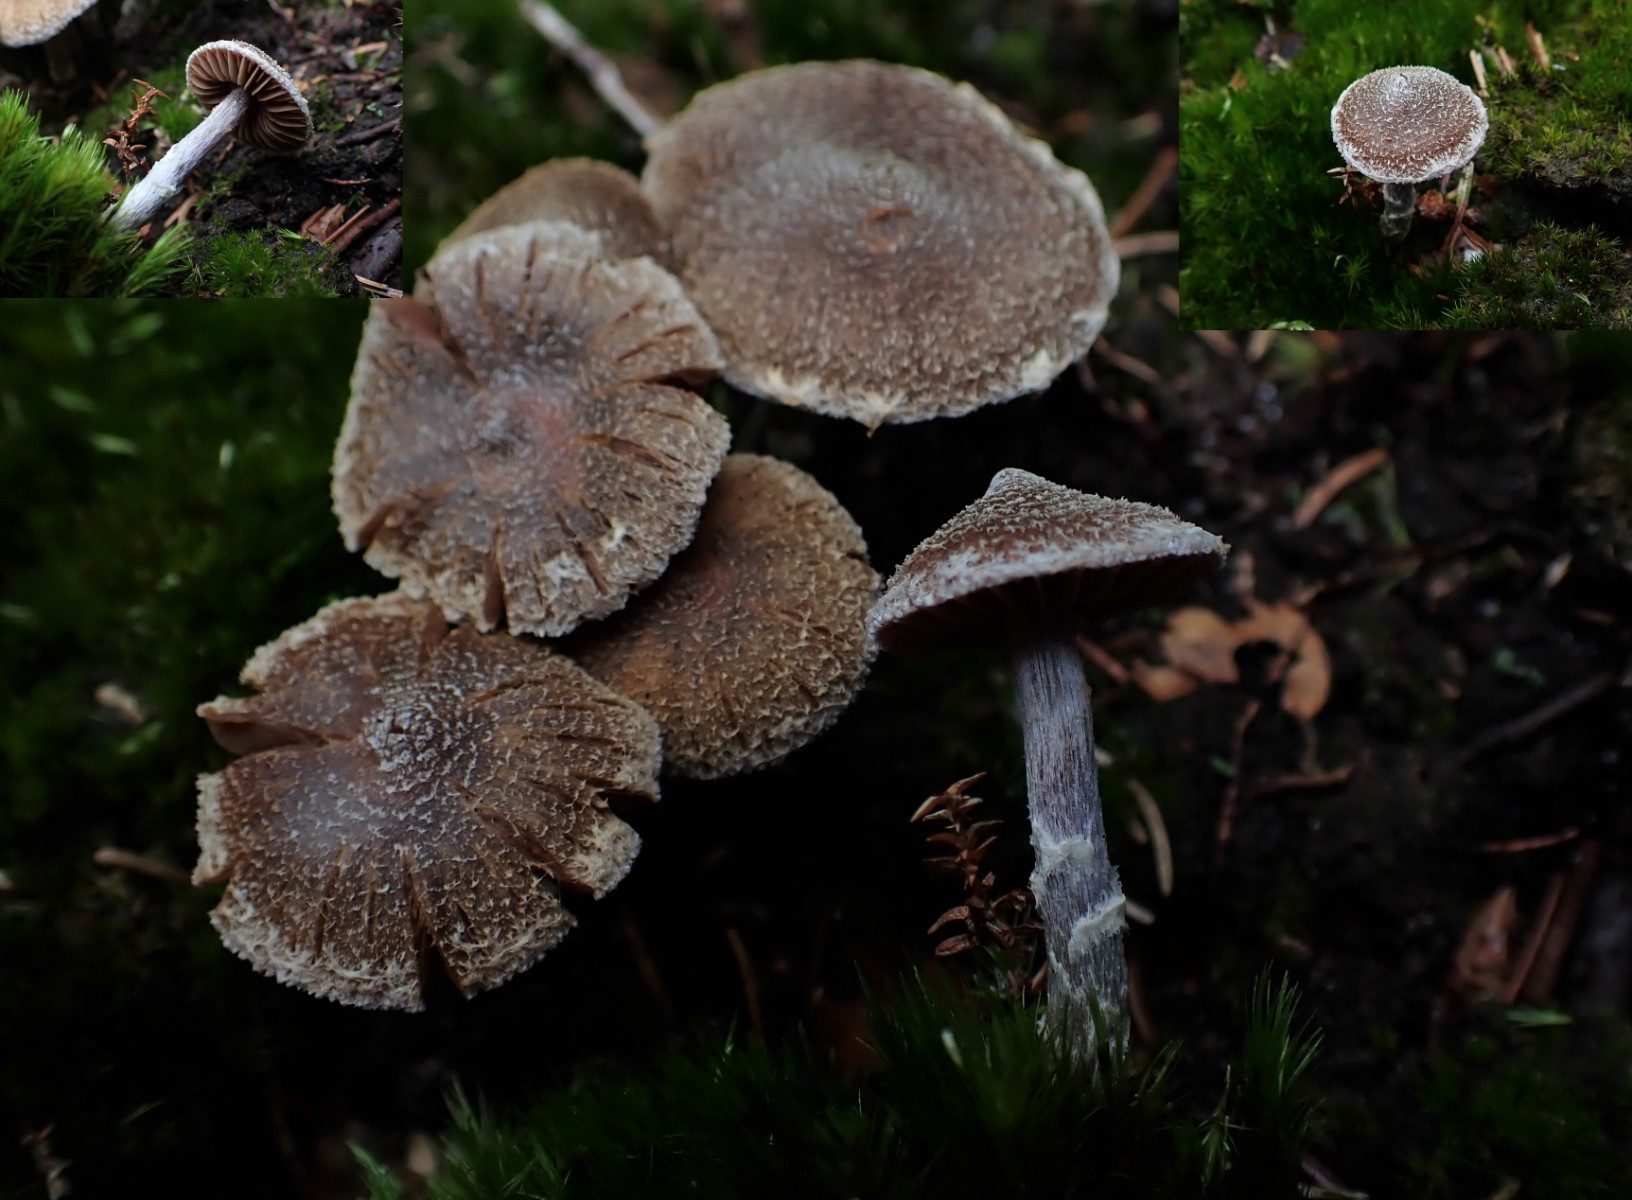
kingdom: Fungi
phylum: Basidiomycota
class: Agaricomycetes
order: Agaricales
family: Cortinariaceae
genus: Cortinarius
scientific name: Cortinarius
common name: pelargonie-slørhat
